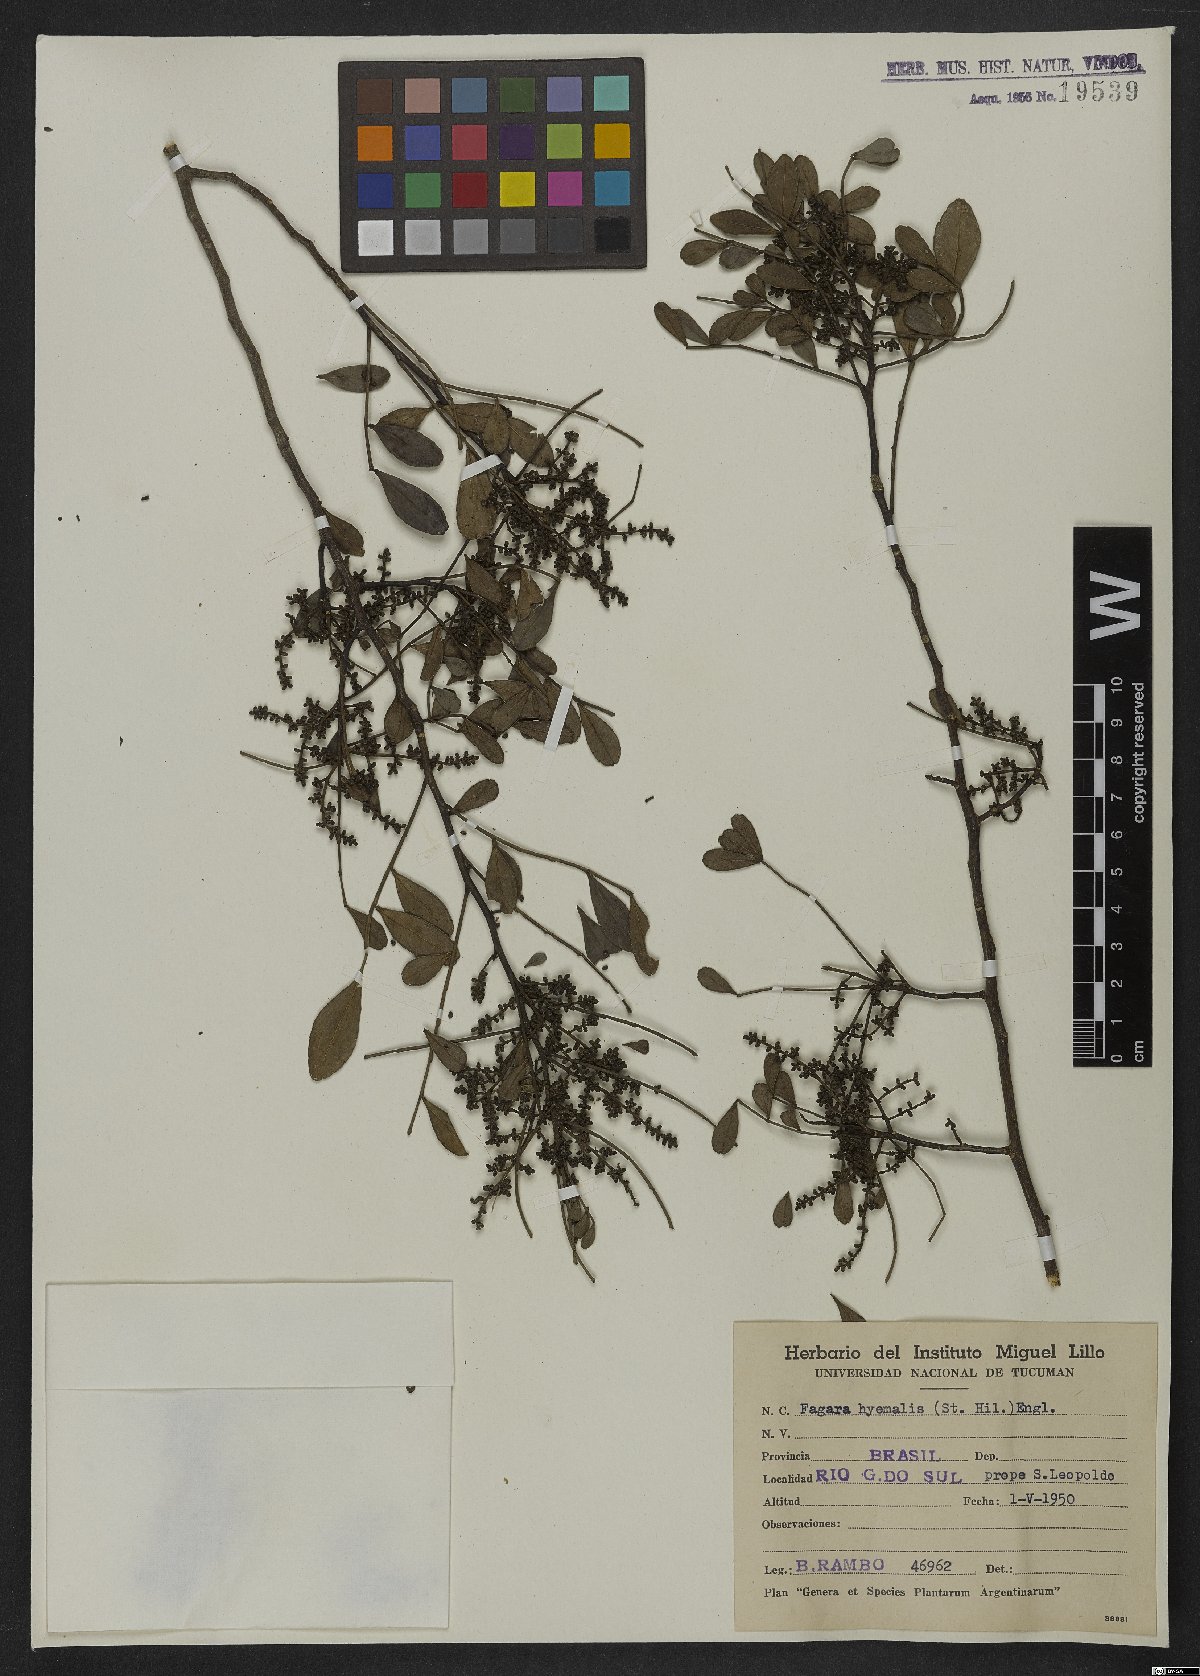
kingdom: Plantae
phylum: Tracheophyta
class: Magnoliopsida
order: Sapindales
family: Rutaceae
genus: Zanthoxylum
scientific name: Zanthoxylum fagara
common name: Lime prickly-ash
